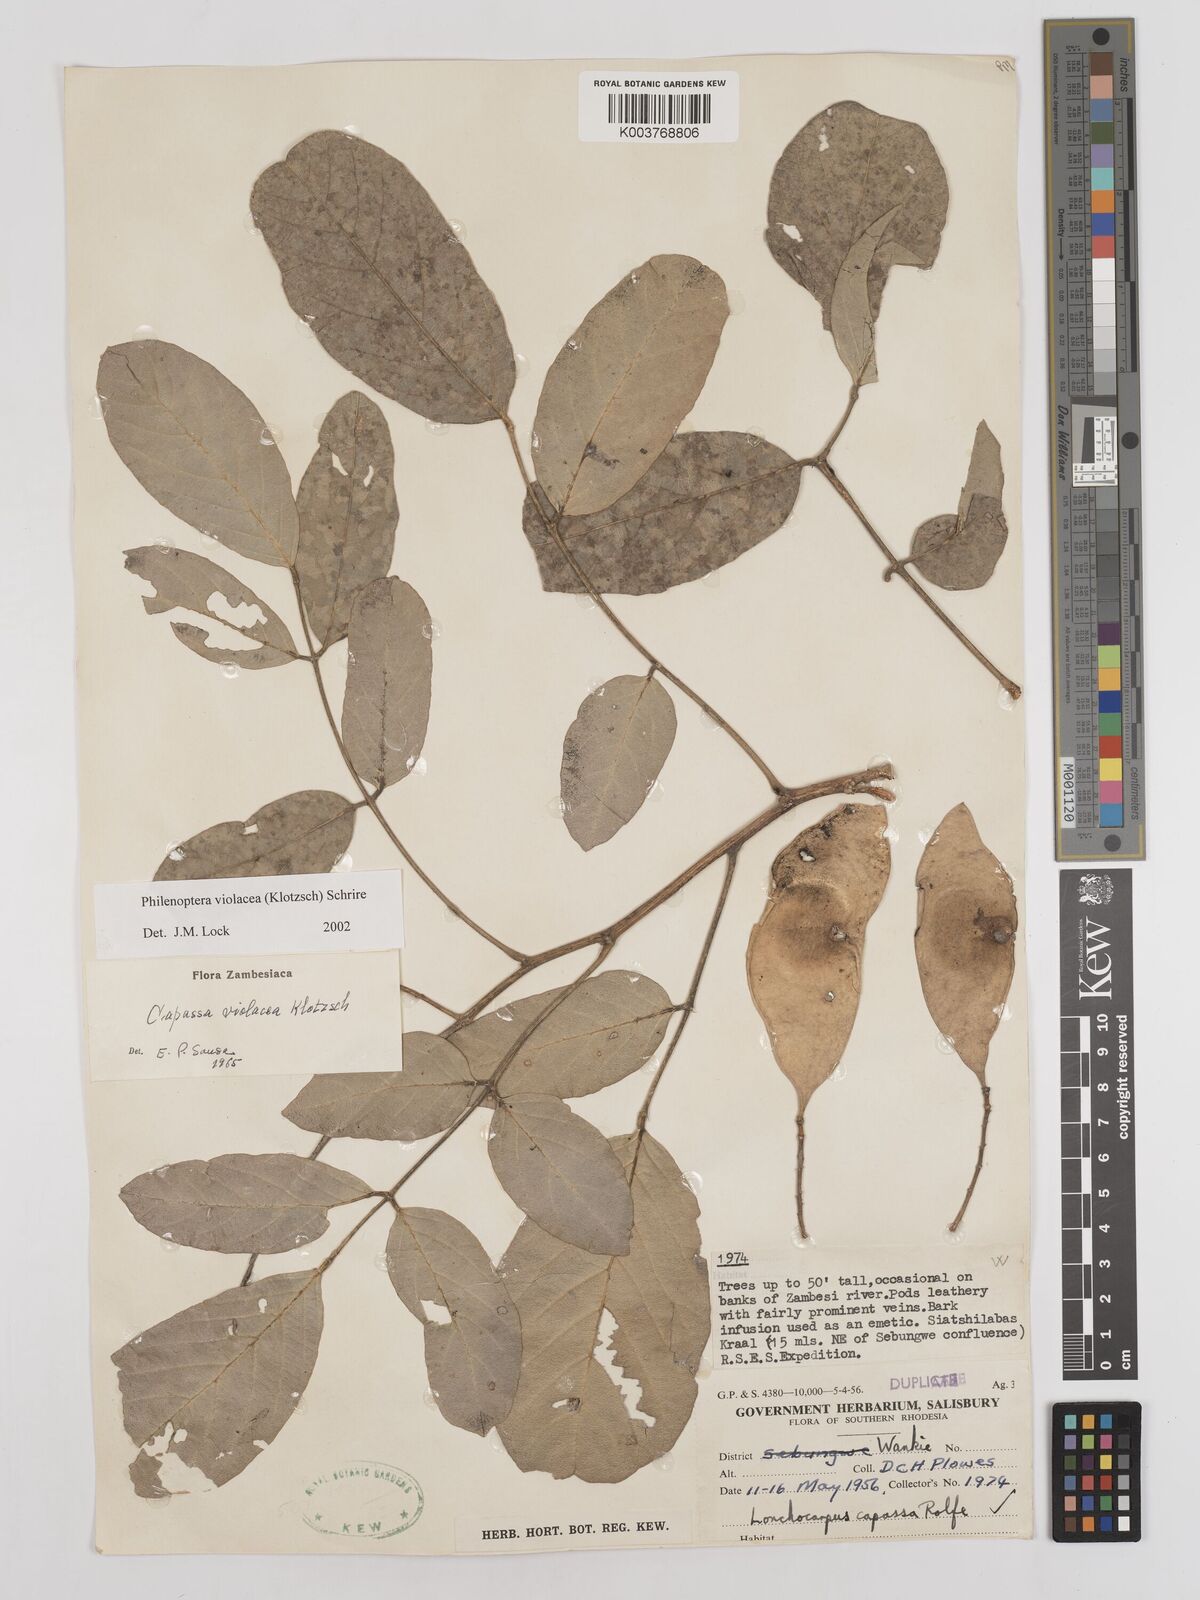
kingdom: Plantae
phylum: Tracheophyta
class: Magnoliopsida
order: Fabales
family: Fabaceae
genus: Philenoptera
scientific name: Philenoptera violacea
